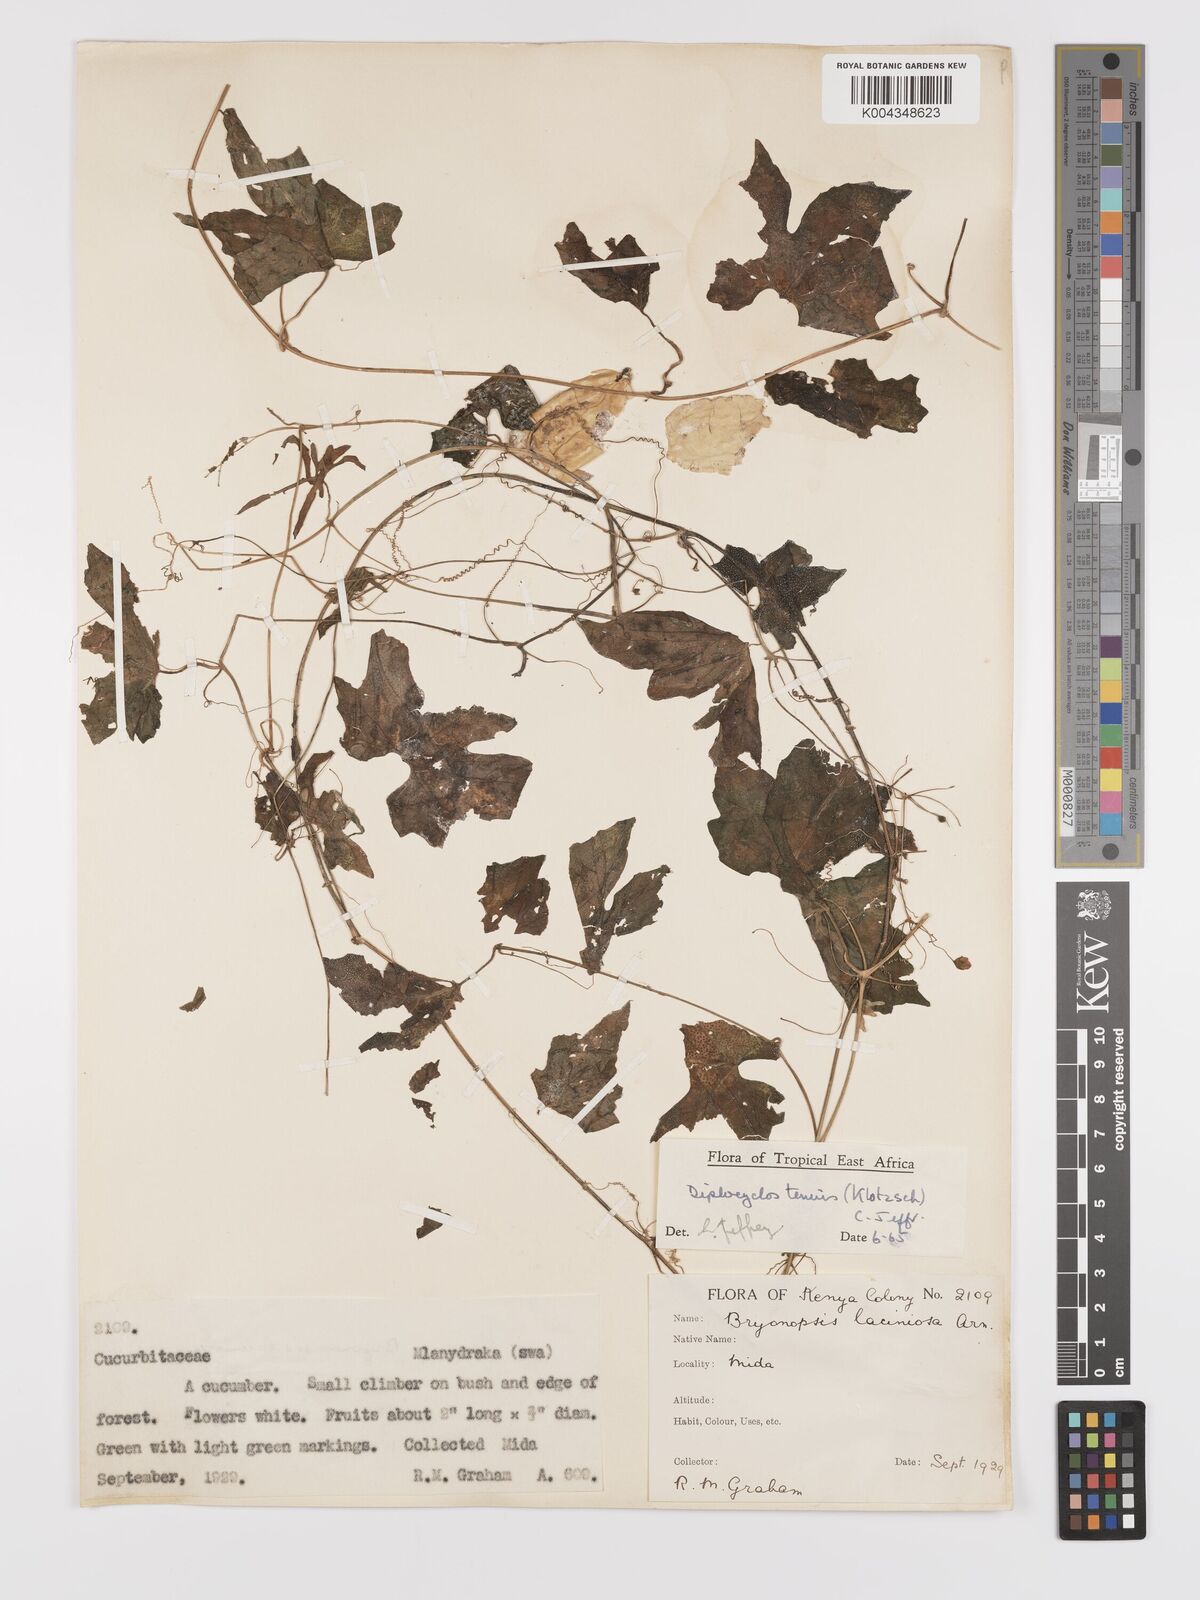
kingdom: Plantae
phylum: Tracheophyta
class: Magnoliopsida
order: Cucurbitales
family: Cucurbitaceae
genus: Diplocyclos
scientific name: Diplocyclos tenuis
